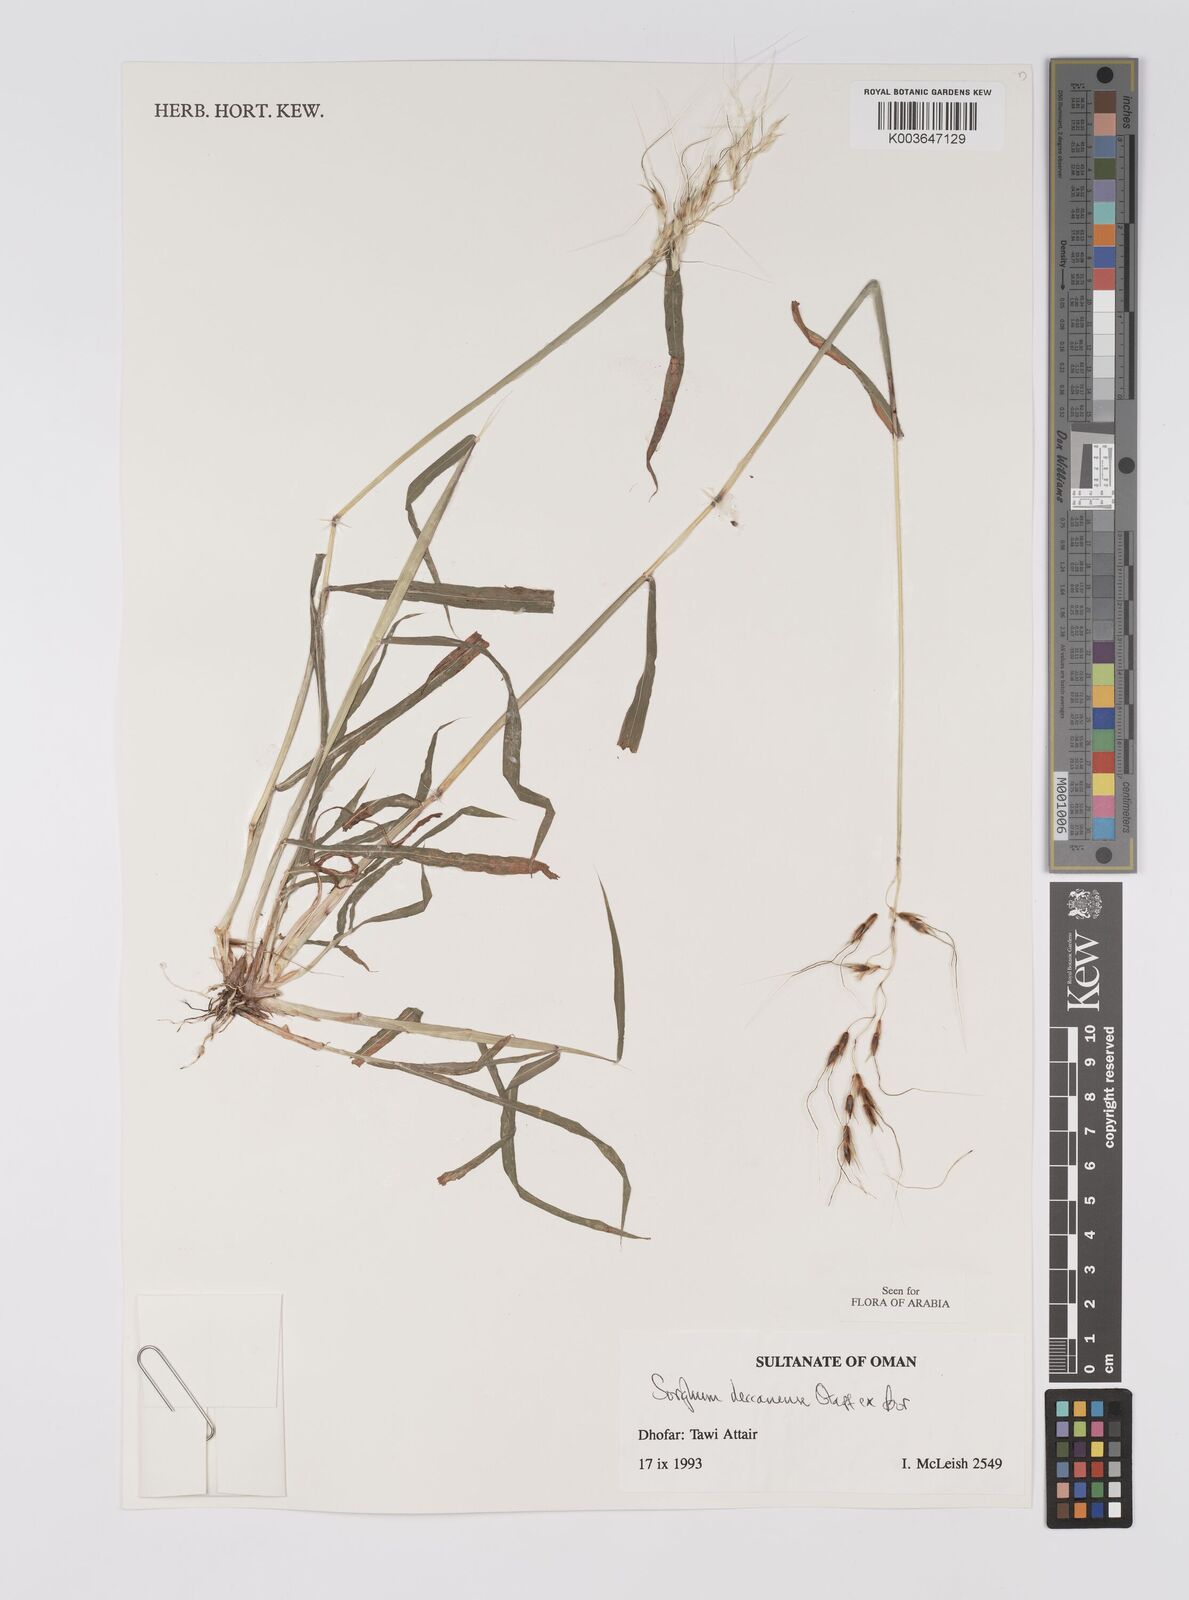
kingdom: Plantae
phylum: Tracheophyta
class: Liliopsida
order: Poales
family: Poaceae
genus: Sarga
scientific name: Sarga purpureosericea
